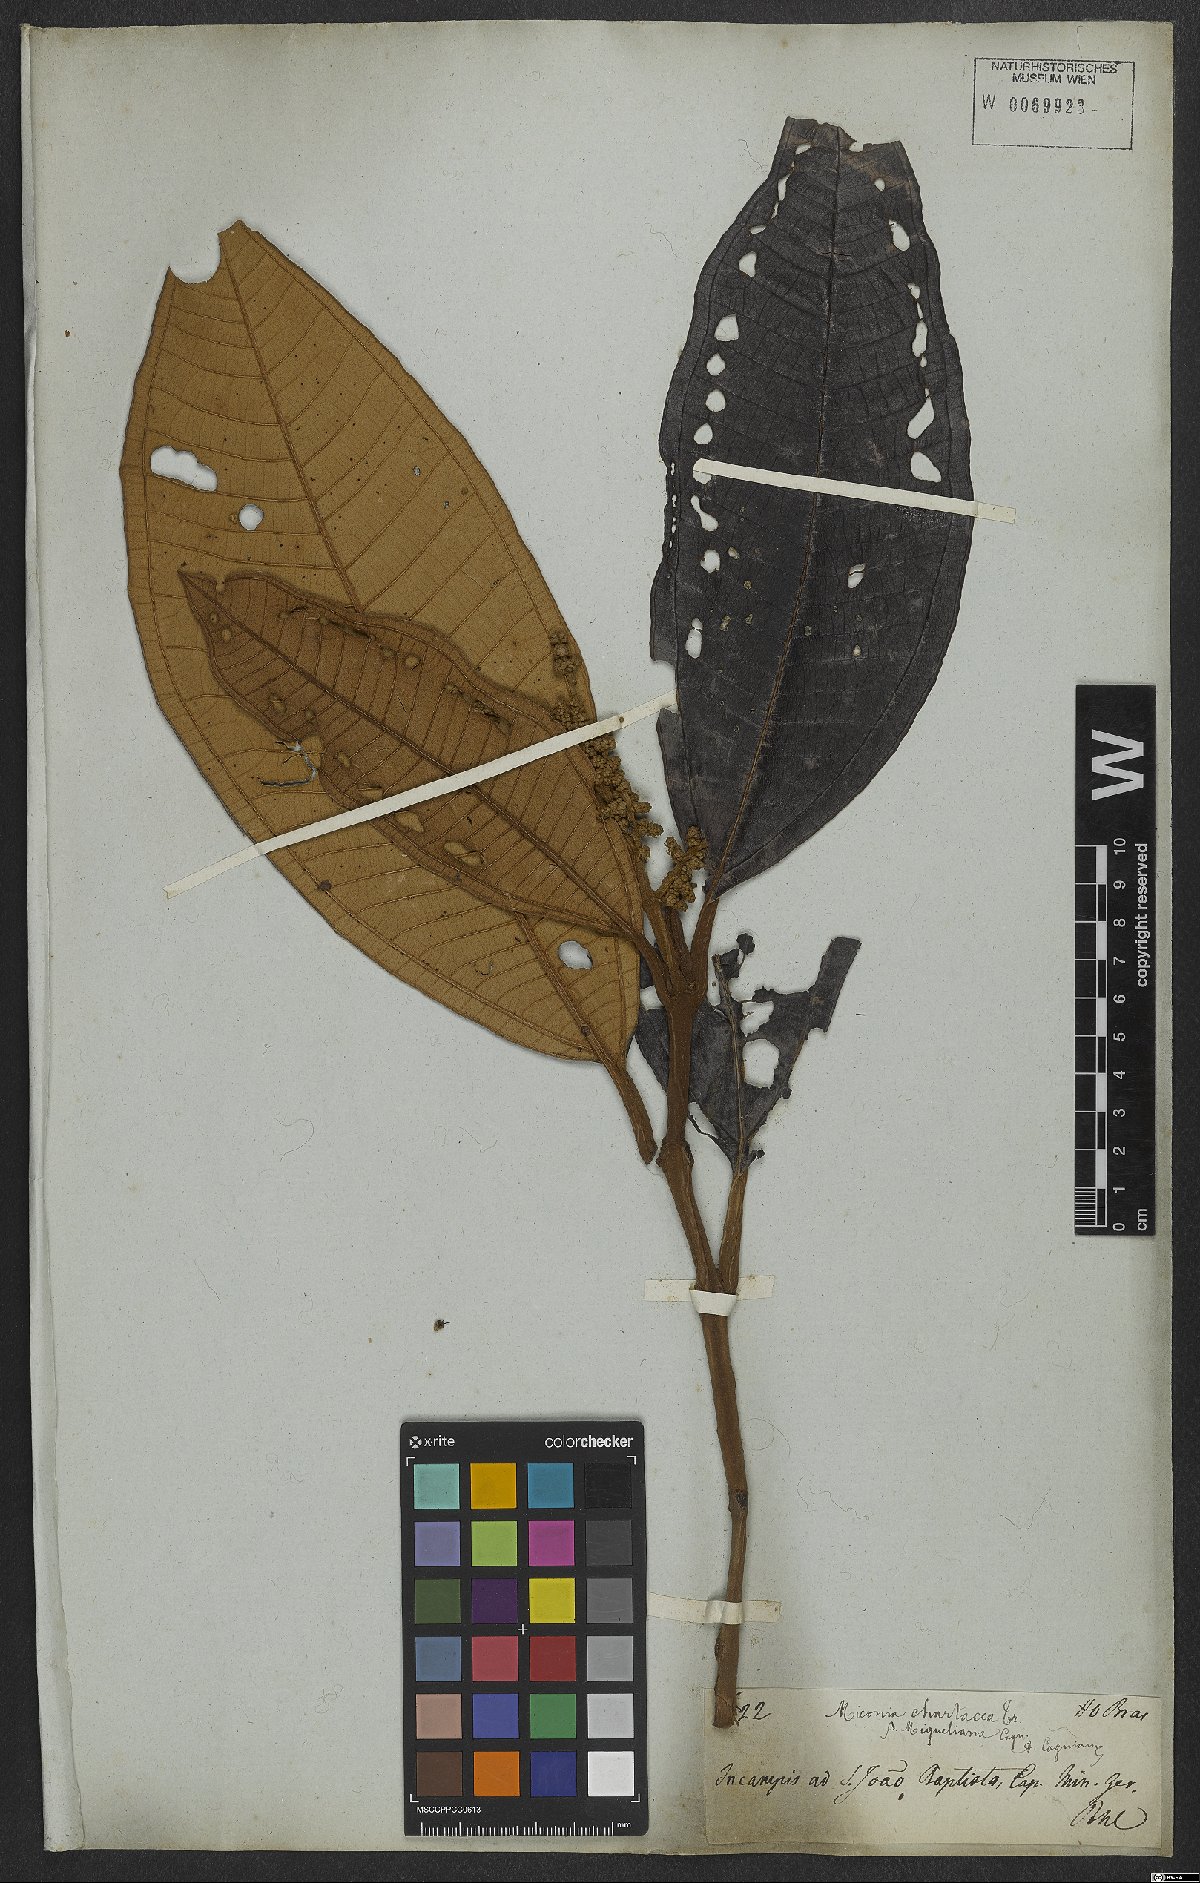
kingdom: Plantae
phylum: Tracheophyta
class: Magnoliopsida
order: Myrtales
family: Melastomataceae
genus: Miconia
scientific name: Miconia chartacea
